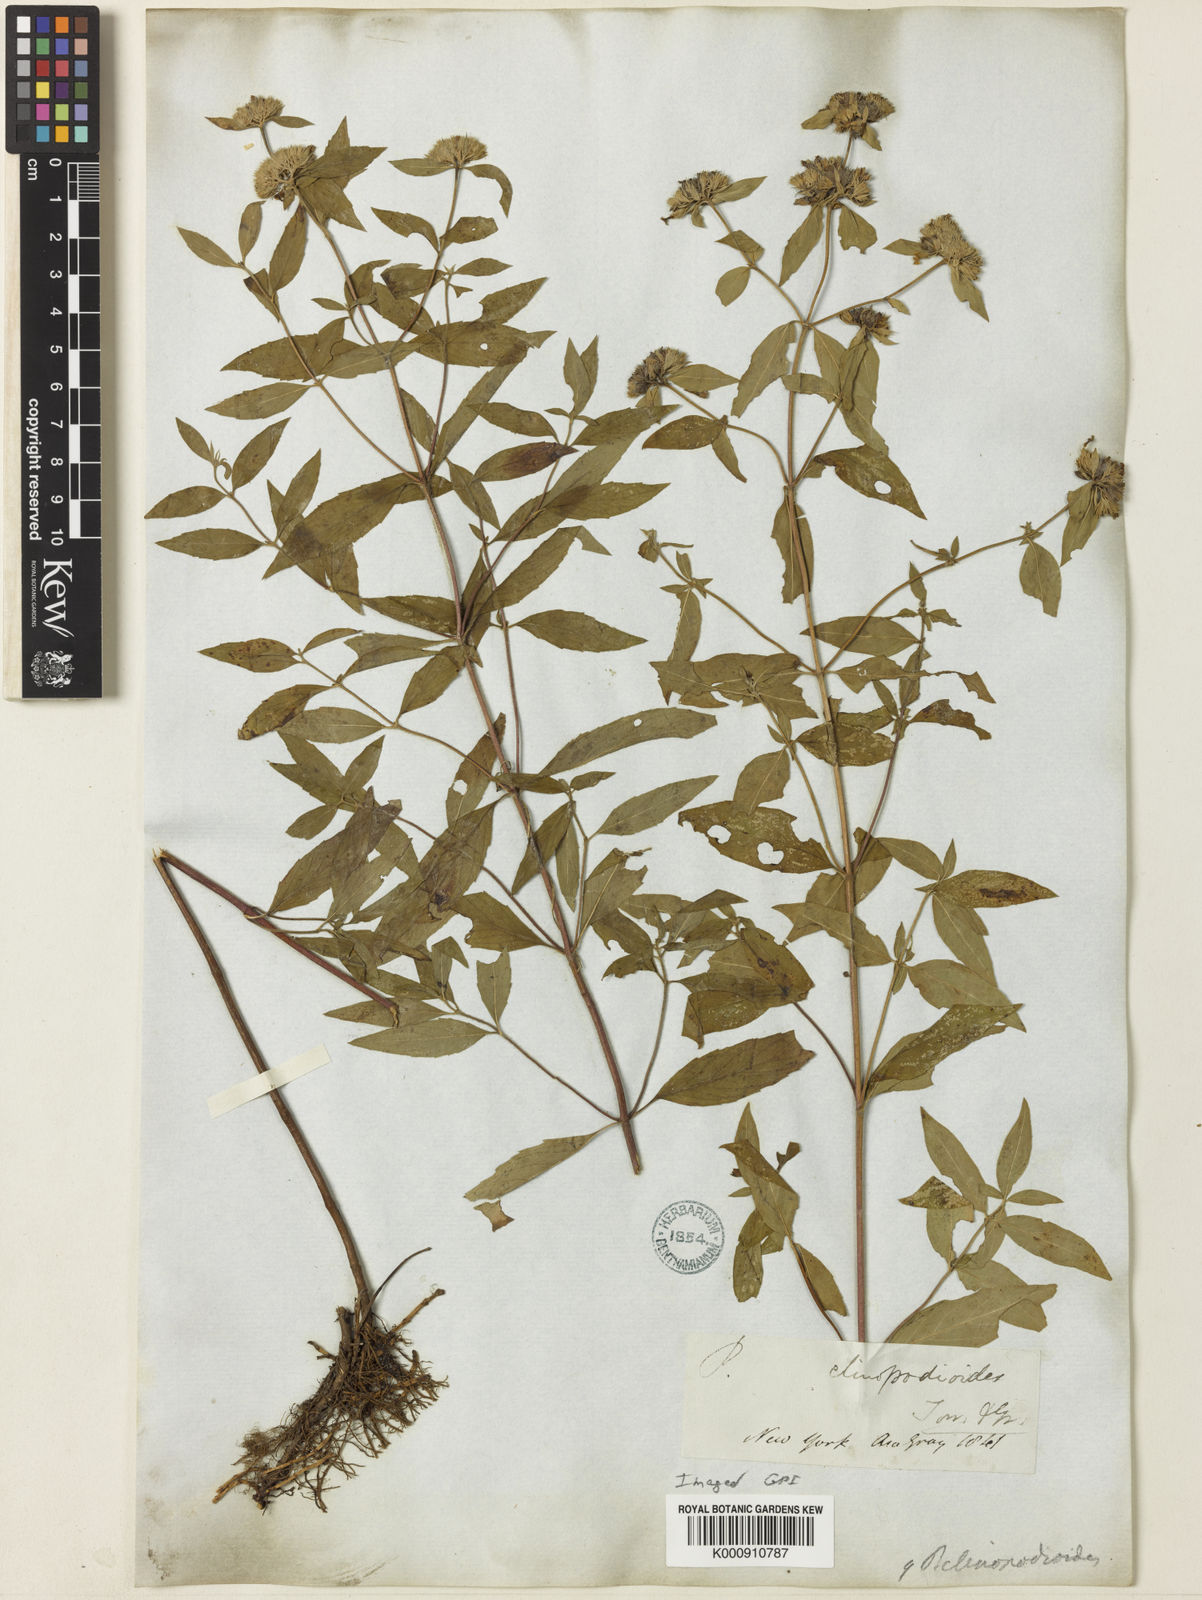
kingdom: Plantae
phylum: Tracheophyta
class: Magnoliopsida
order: Lamiales
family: Lamiaceae
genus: Pycnanthemum
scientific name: Pycnanthemum clinopodioides
